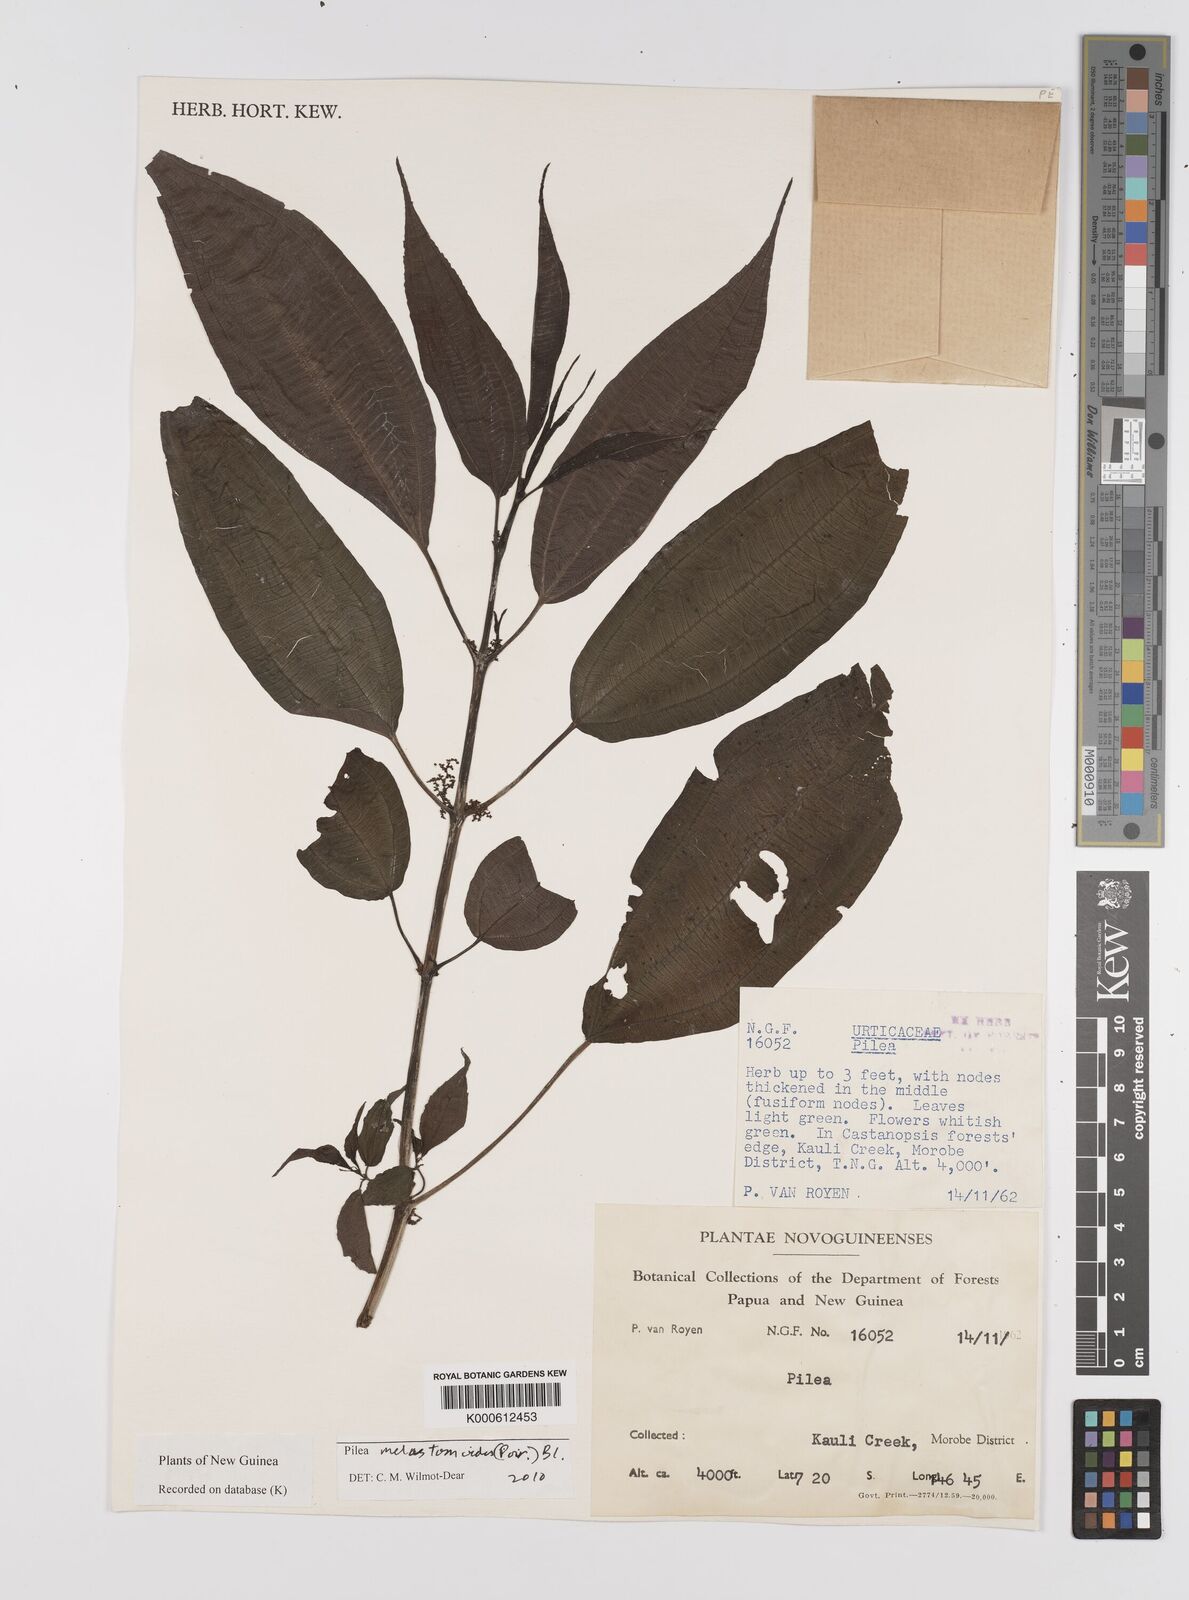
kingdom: Plantae
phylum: Tracheophyta
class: Magnoliopsida
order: Rosales
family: Urticaceae
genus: Pilea
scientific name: Pilea
